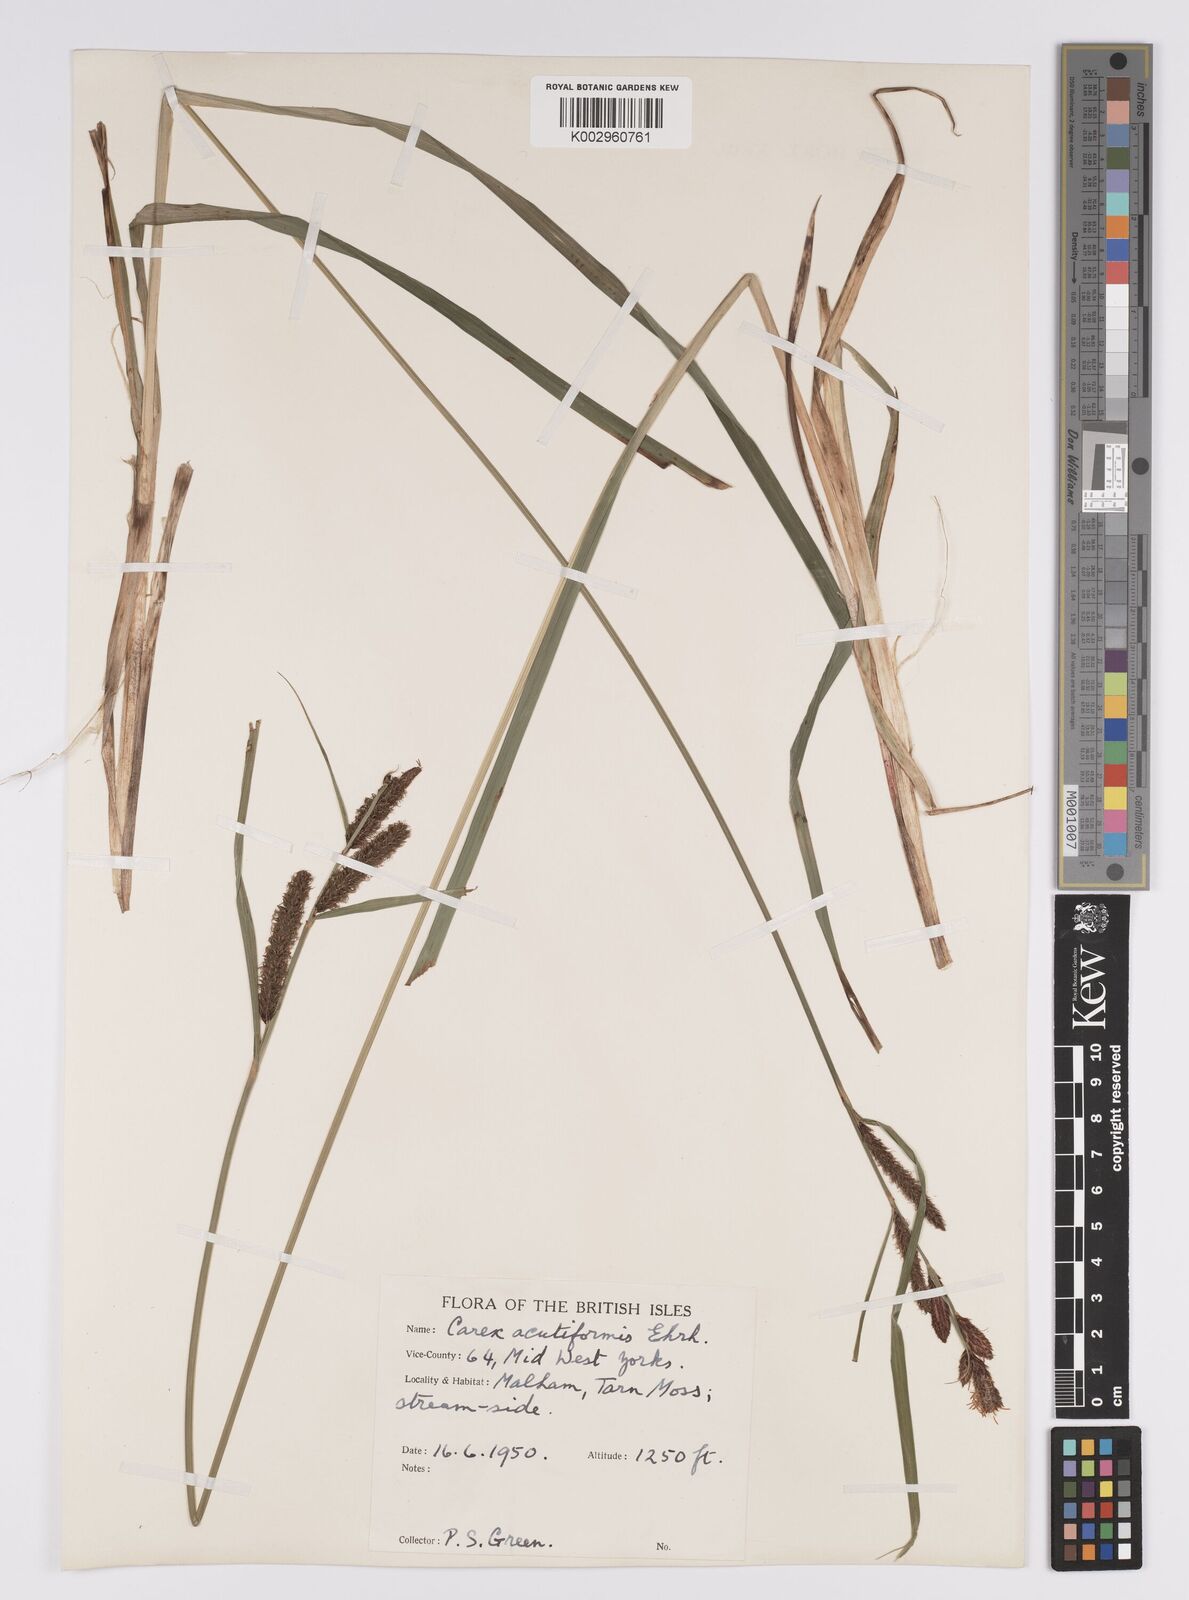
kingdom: Plantae
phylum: Tracheophyta
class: Liliopsida
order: Poales
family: Cyperaceae
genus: Carex
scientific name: Carex acutiformis
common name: Lesser pond-sedge
